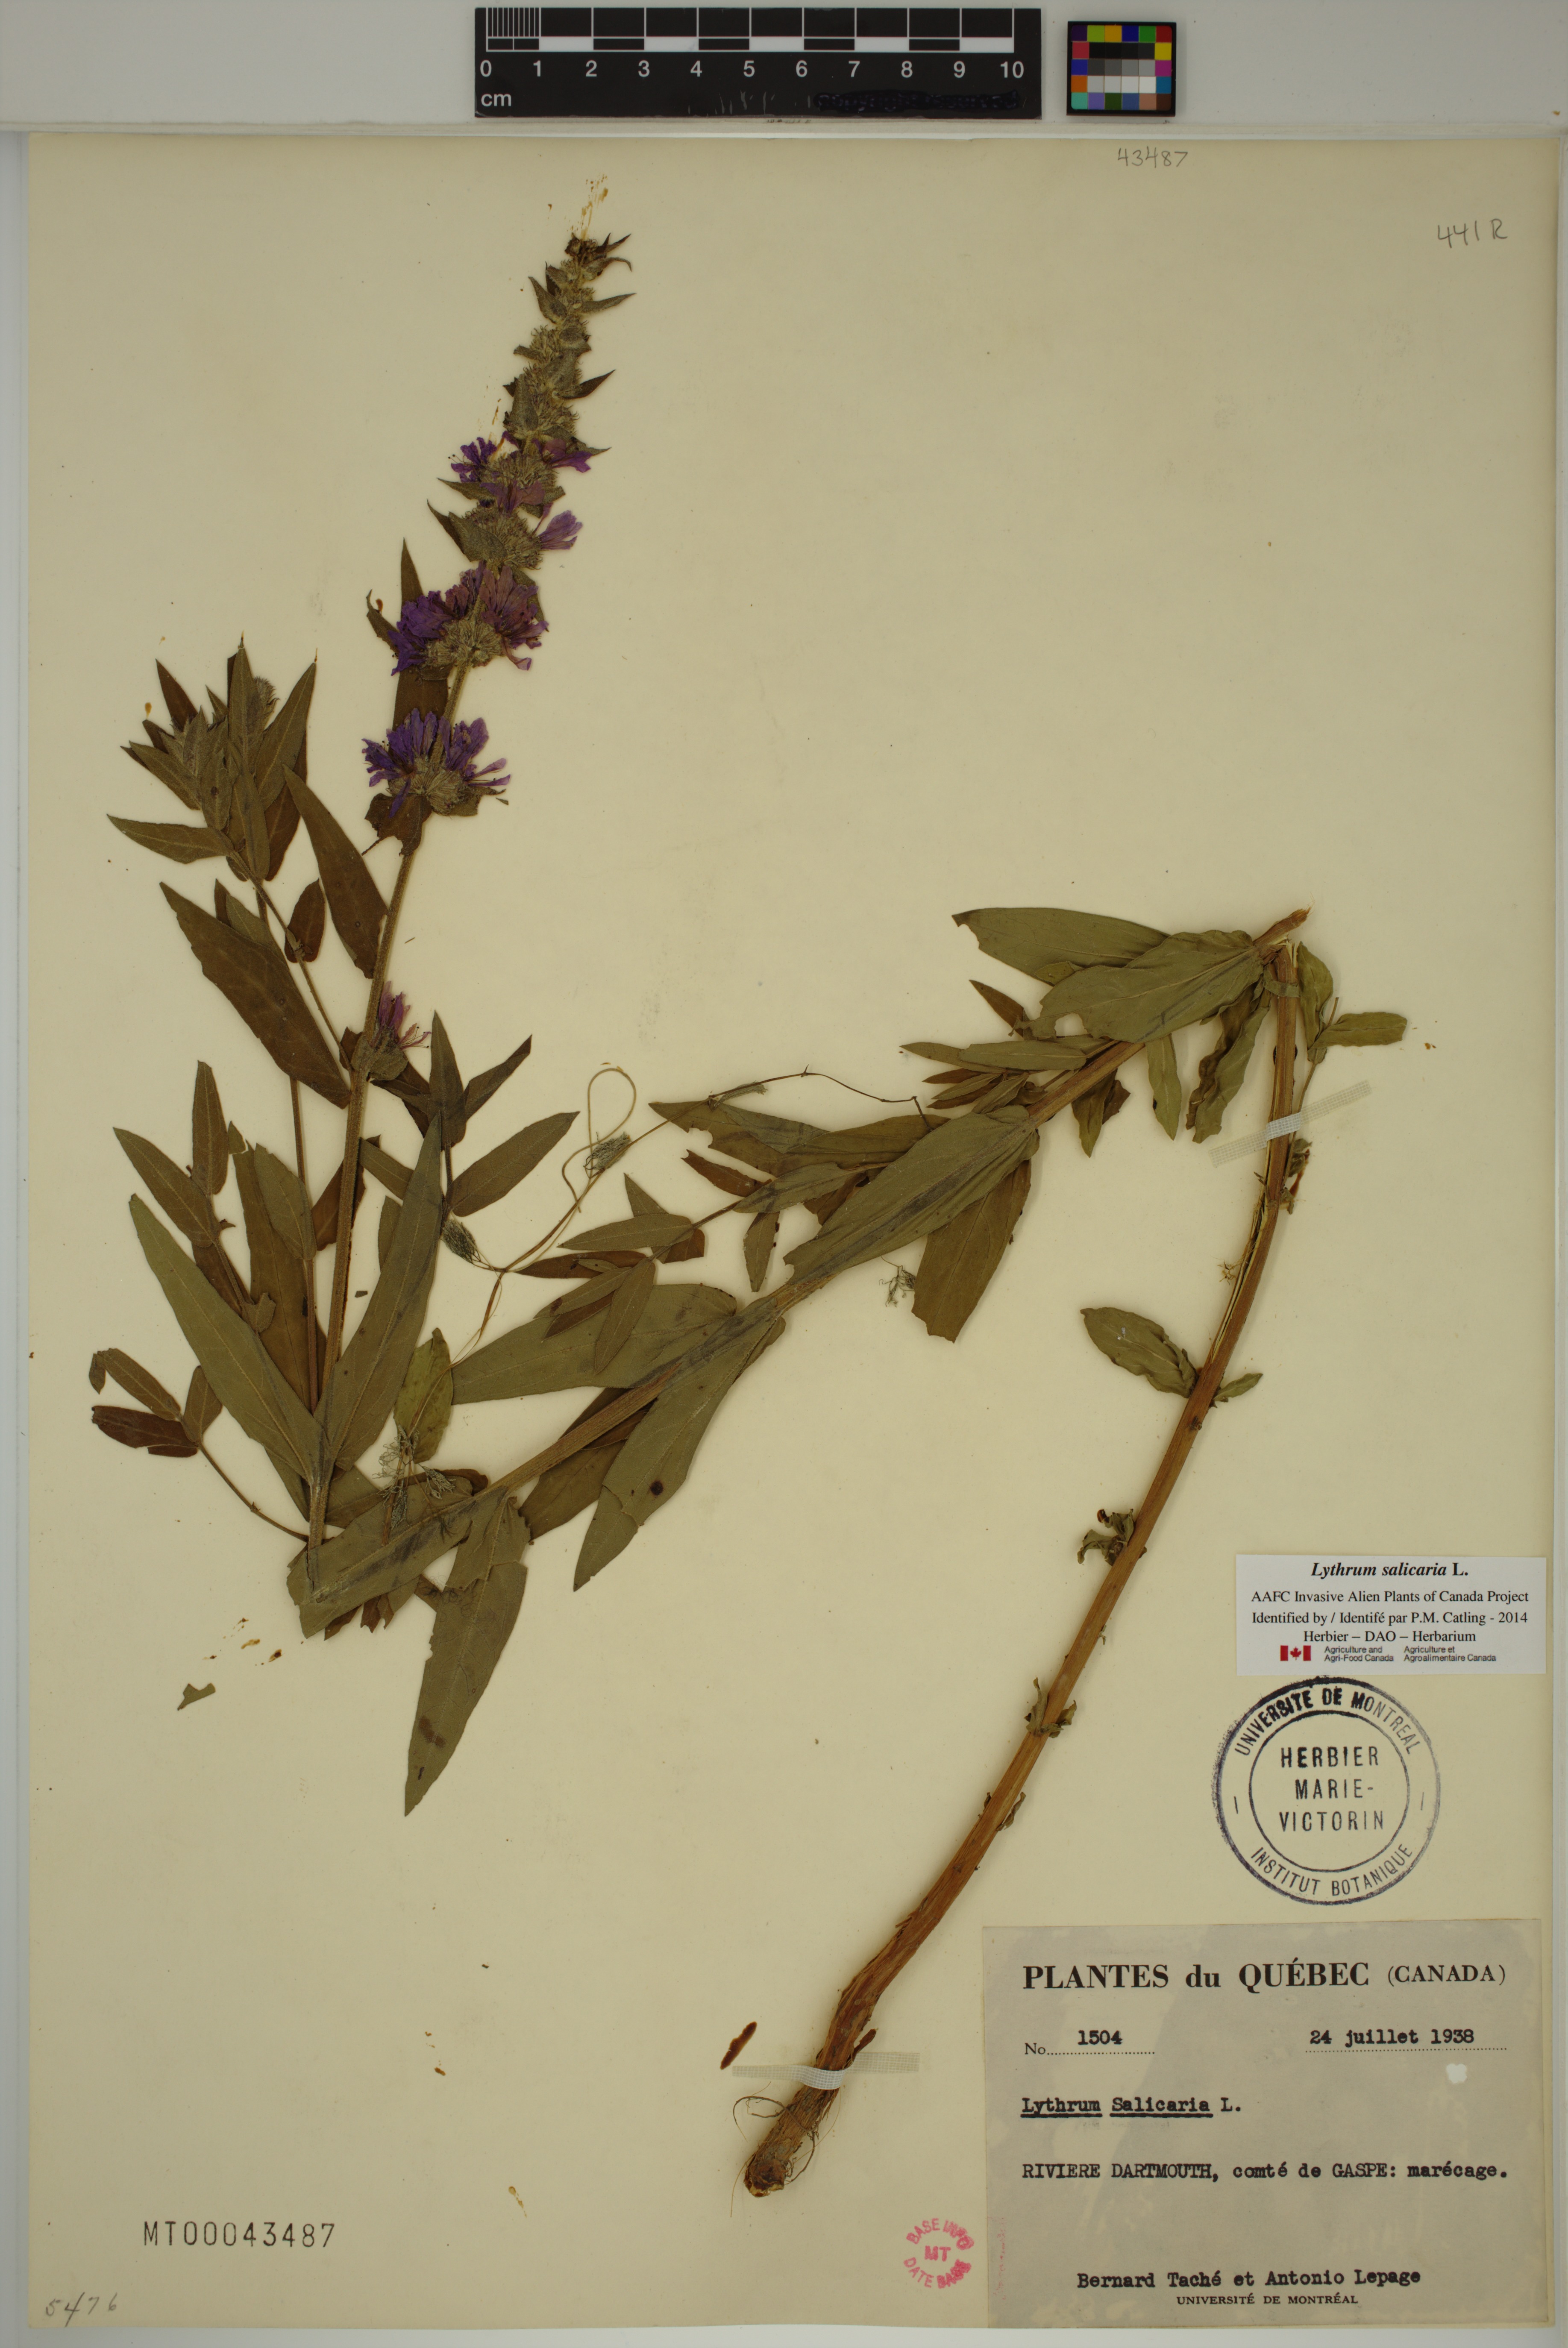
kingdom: Plantae
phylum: Tracheophyta
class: Magnoliopsida
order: Myrtales
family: Lythraceae
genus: Lythrum
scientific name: Lythrum salicaria
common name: Purple loosestrife
